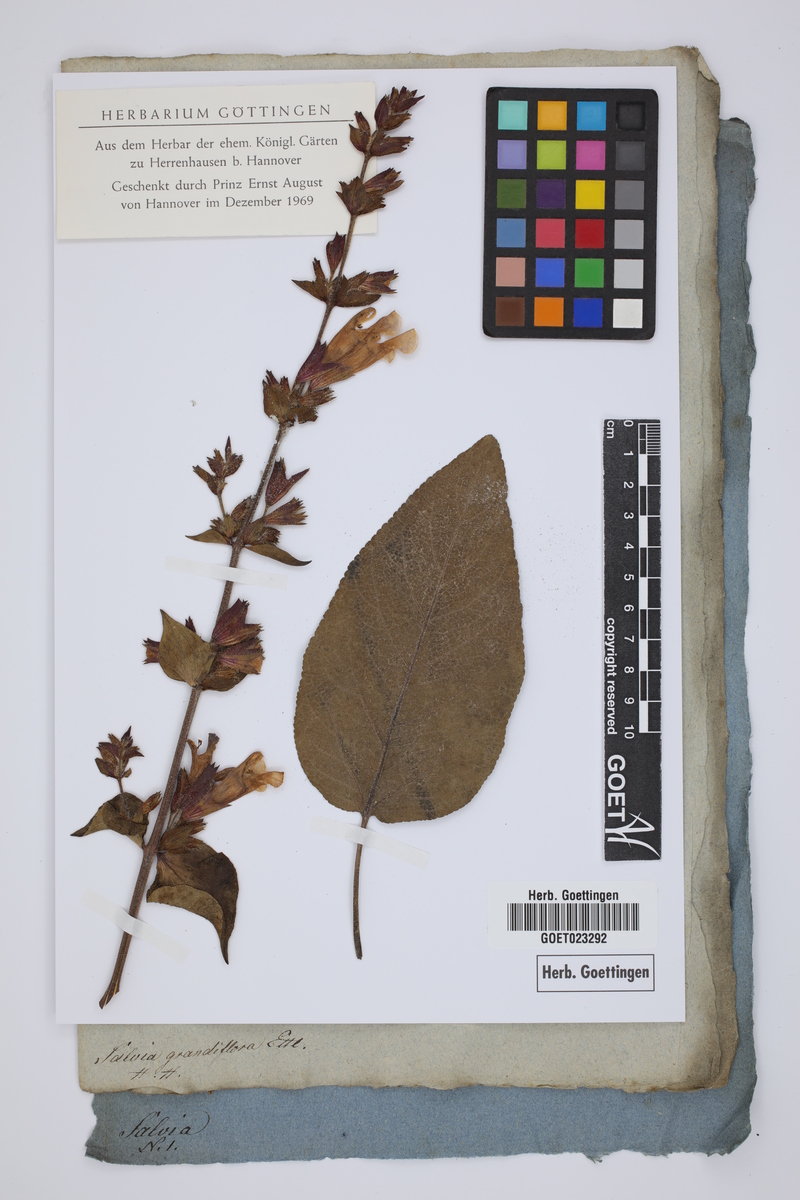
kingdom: Plantae
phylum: Tracheophyta
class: Magnoliopsida
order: Lamiales
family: Lamiaceae
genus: Salvia
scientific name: Salvia tomentosa
